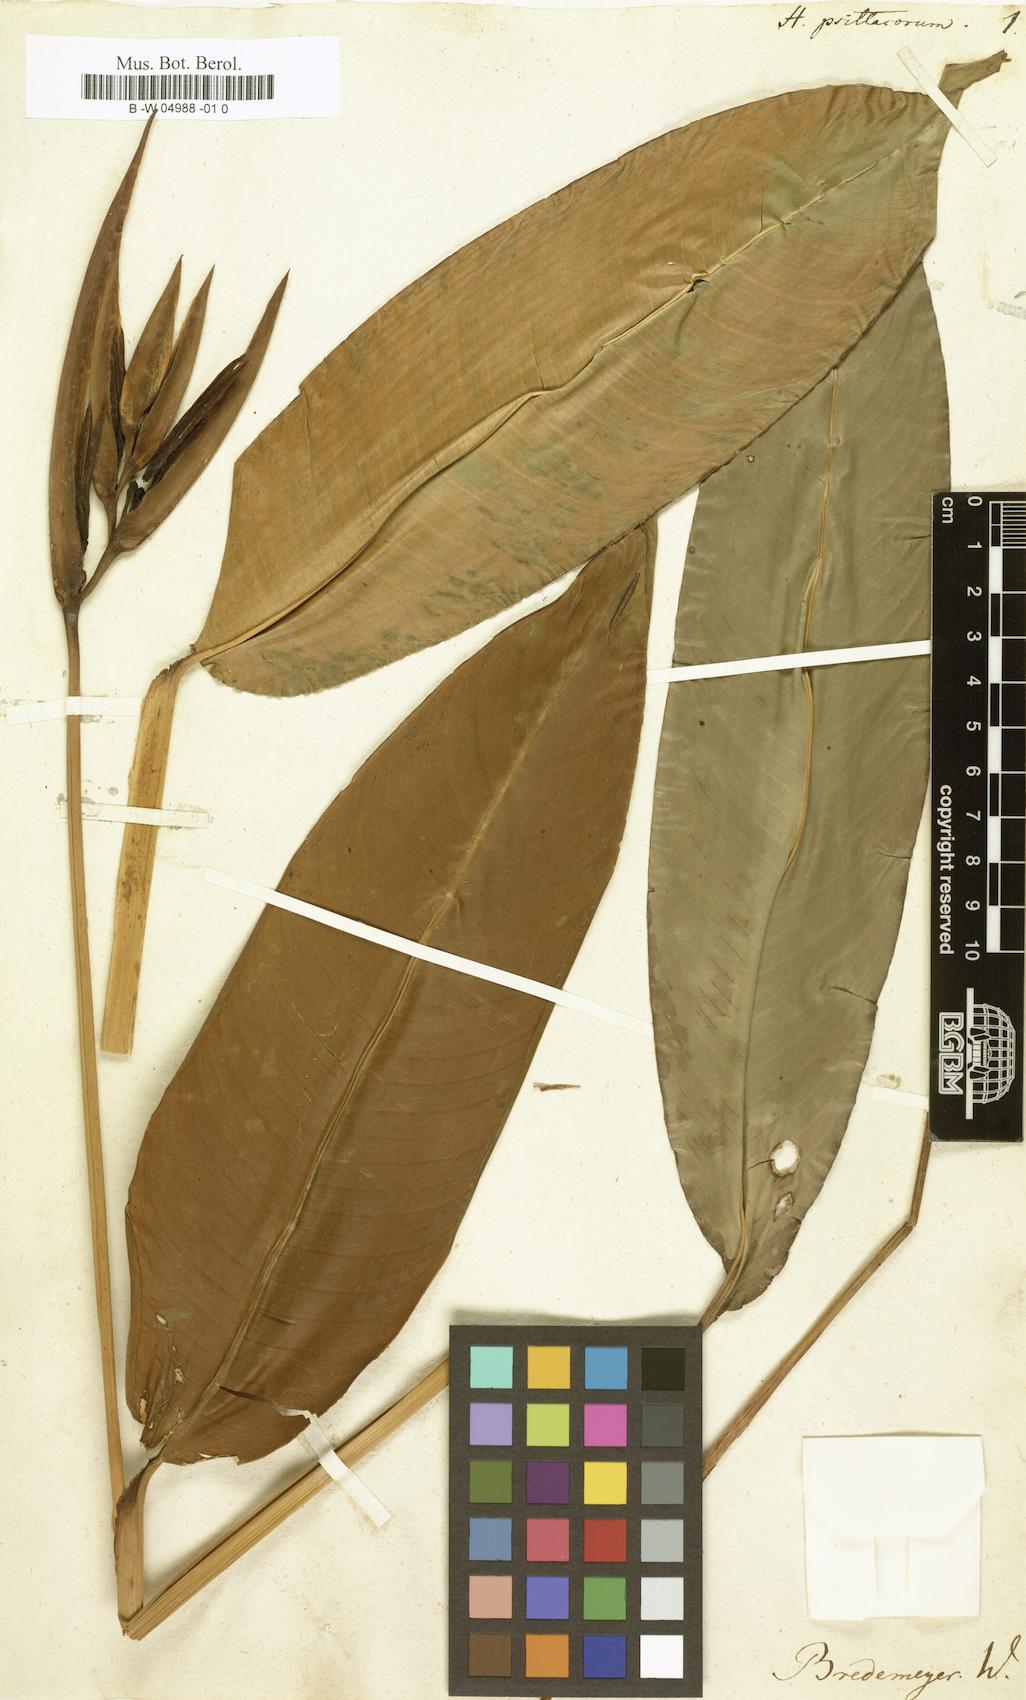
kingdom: Plantae
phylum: Tracheophyta
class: Liliopsida
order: Zingiberales
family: Heliconiaceae
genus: Heliconia
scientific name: Heliconia psittacorum
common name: Parrot's-flower
